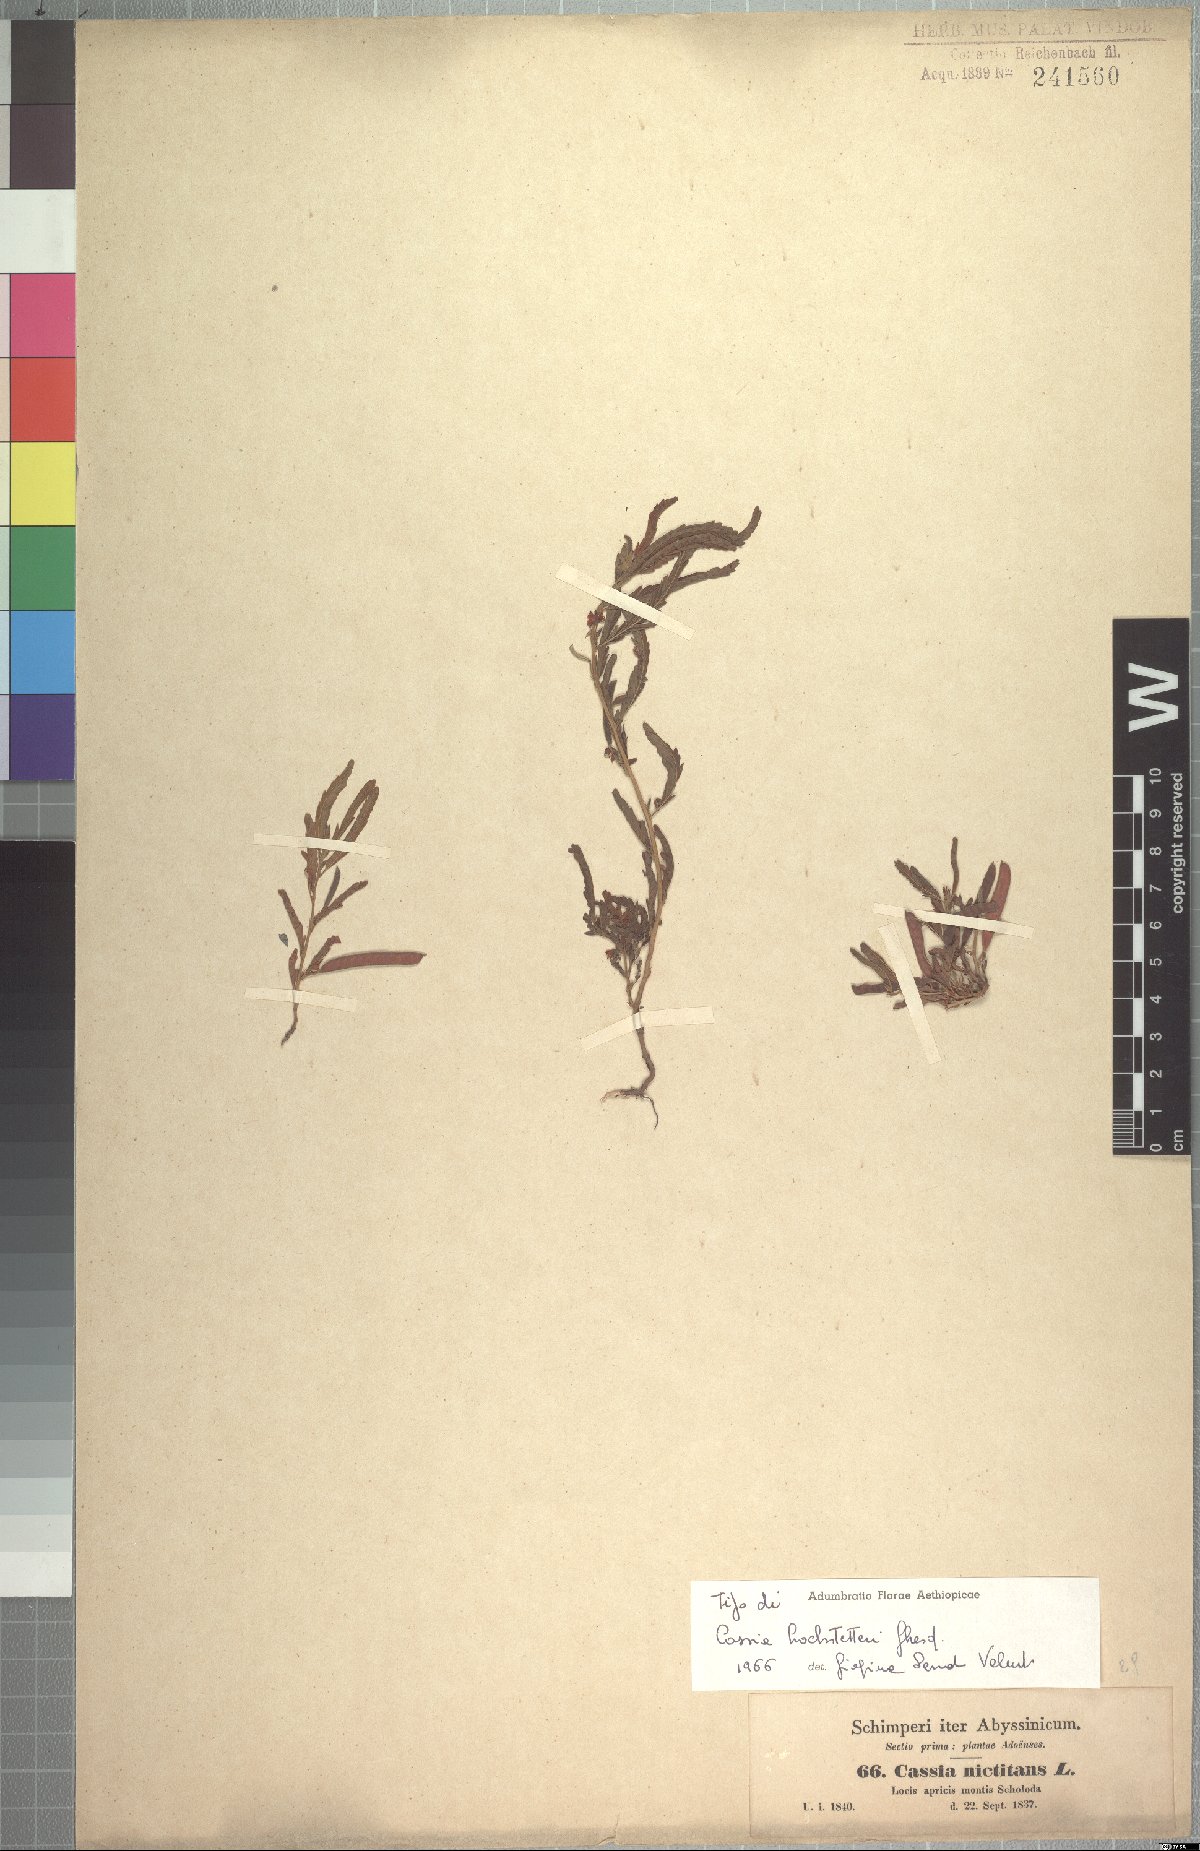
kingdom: Plantae
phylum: Tracheophyta
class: Magnoliopsida
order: Fabales
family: Fabaceae
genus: Chamaecrista
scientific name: Chamaecrista
